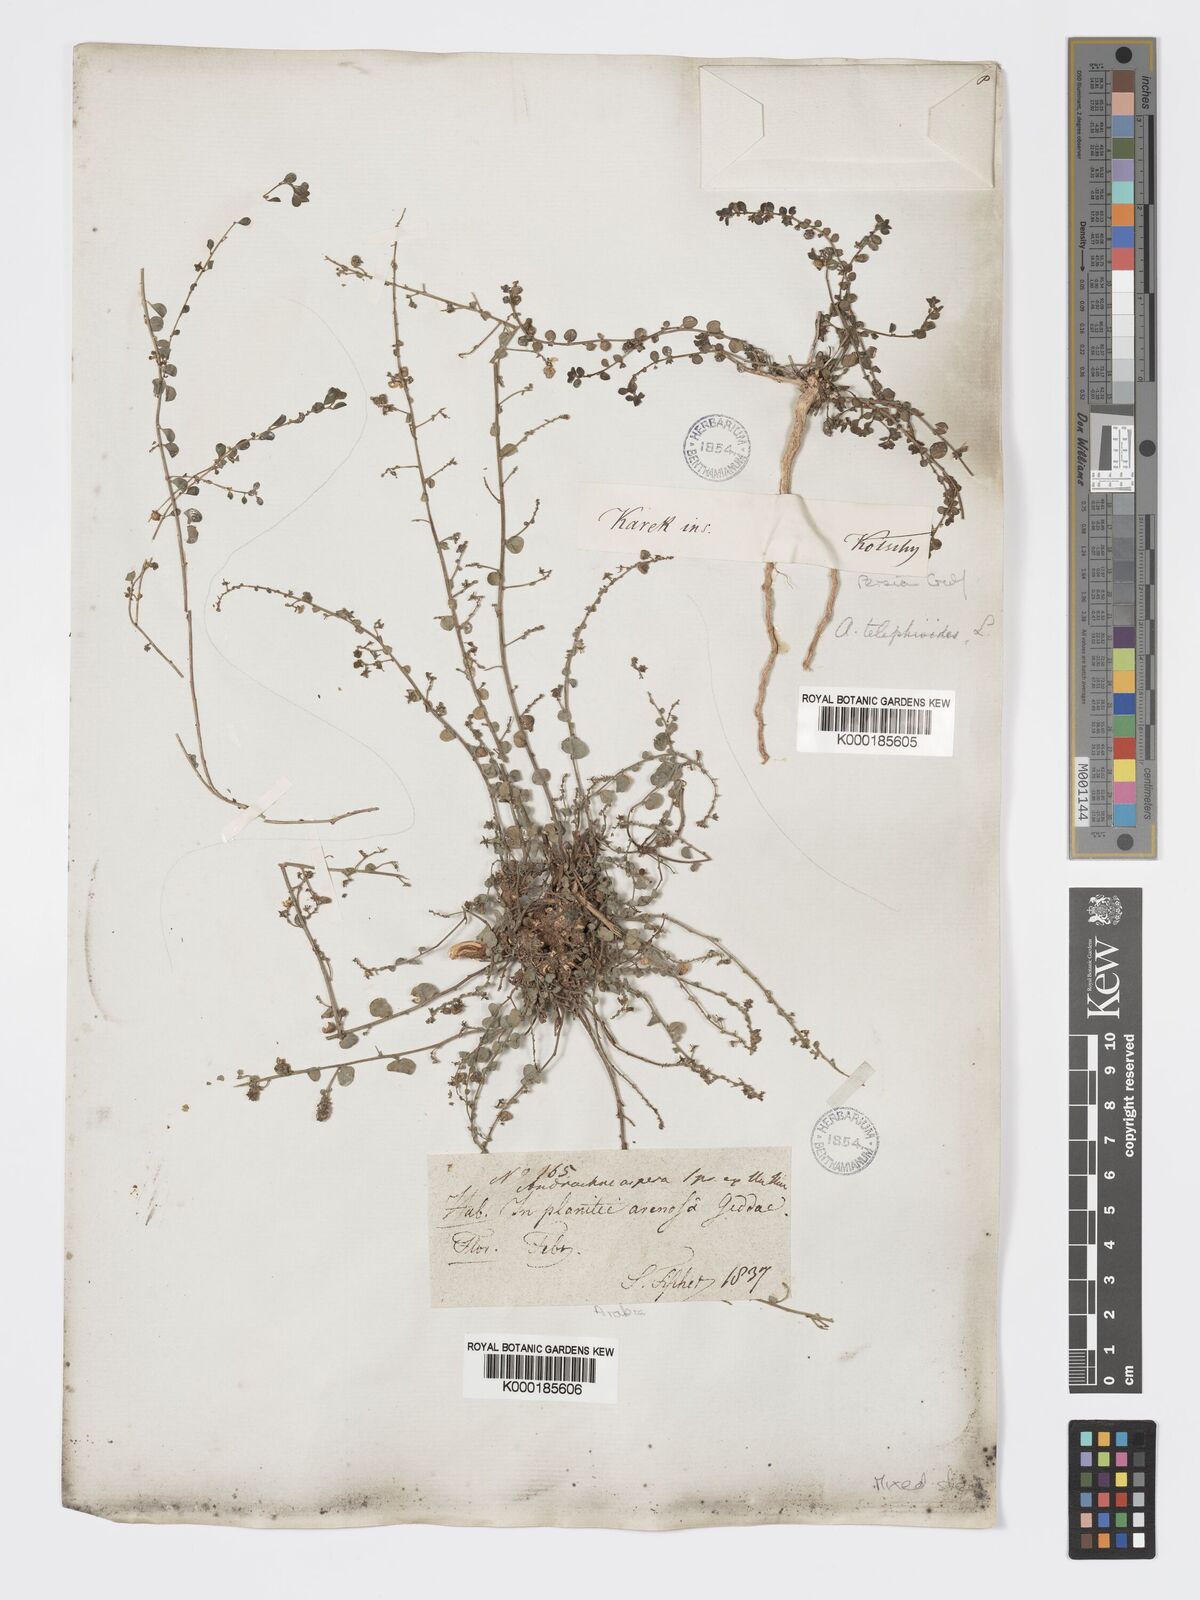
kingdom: Plantae
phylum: Tracheophyta
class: Magnoliopsida
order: Malpighiales
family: Phyllanthaceae
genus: Andrachne
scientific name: Andrachne telephioides
